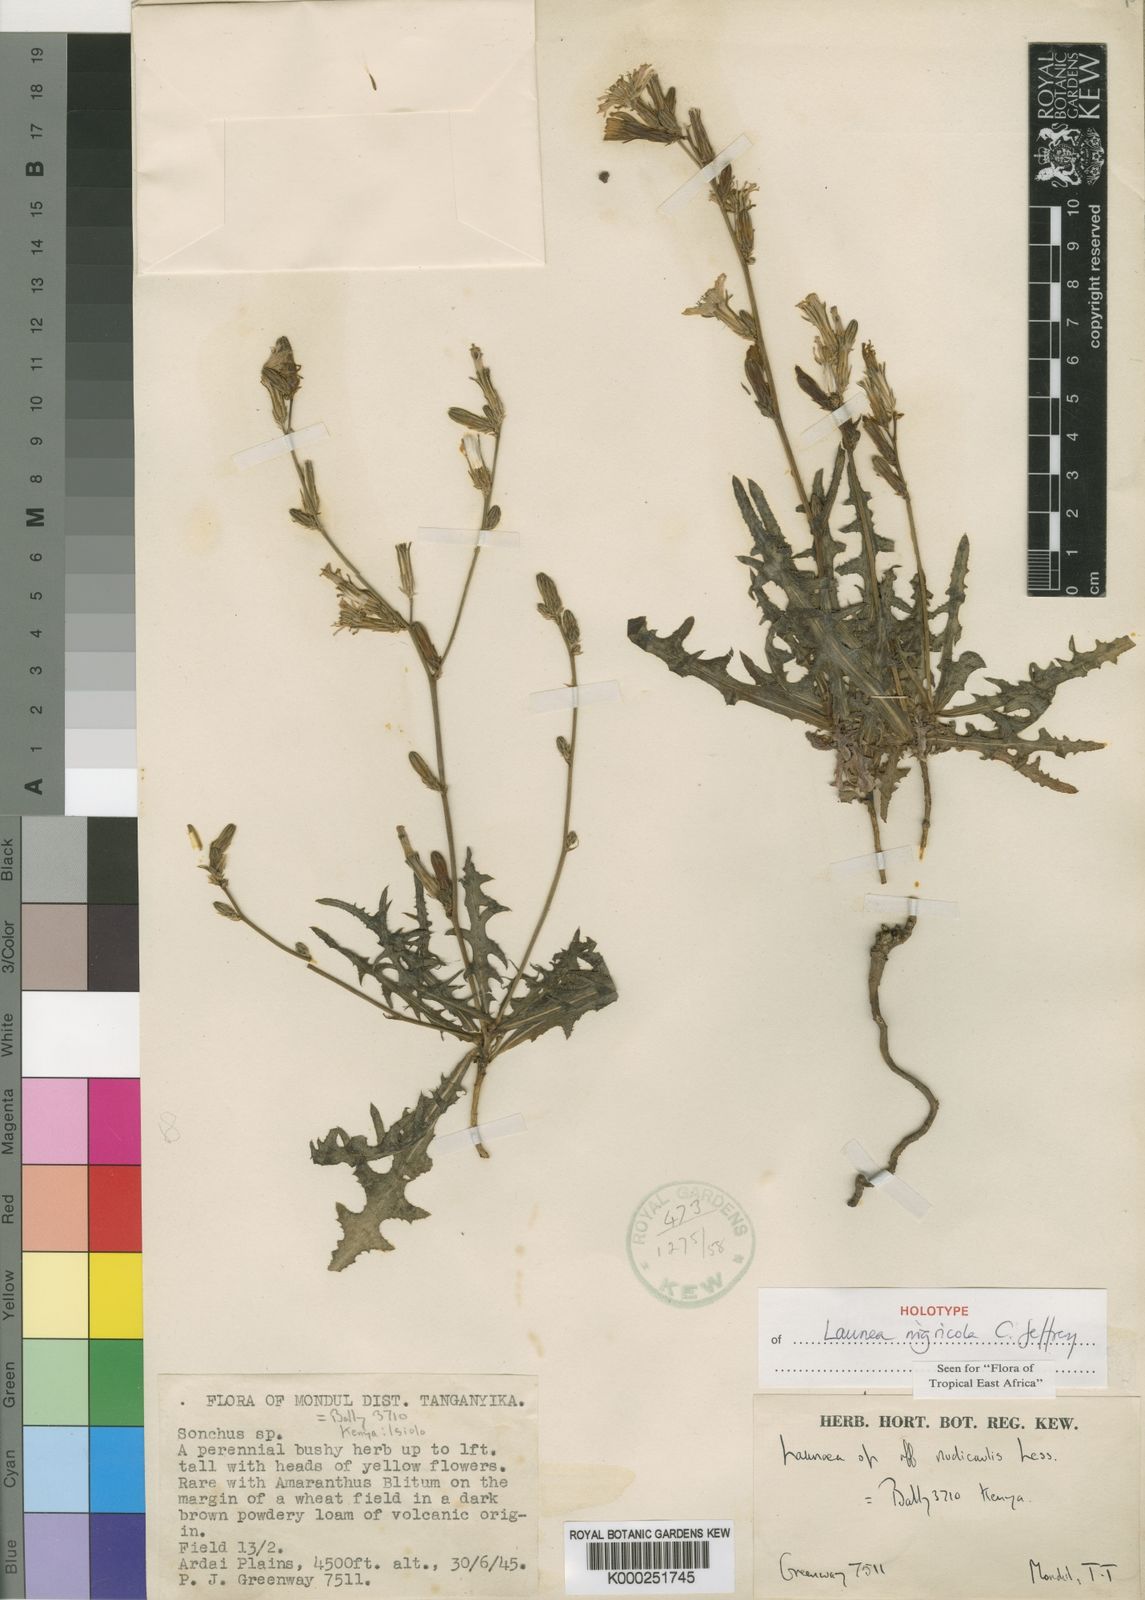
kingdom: Plantae
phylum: Tracheophyta
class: Magnoliopsida
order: Asterales
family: Asteraceae
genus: Launaea
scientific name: Launaea petitiana
